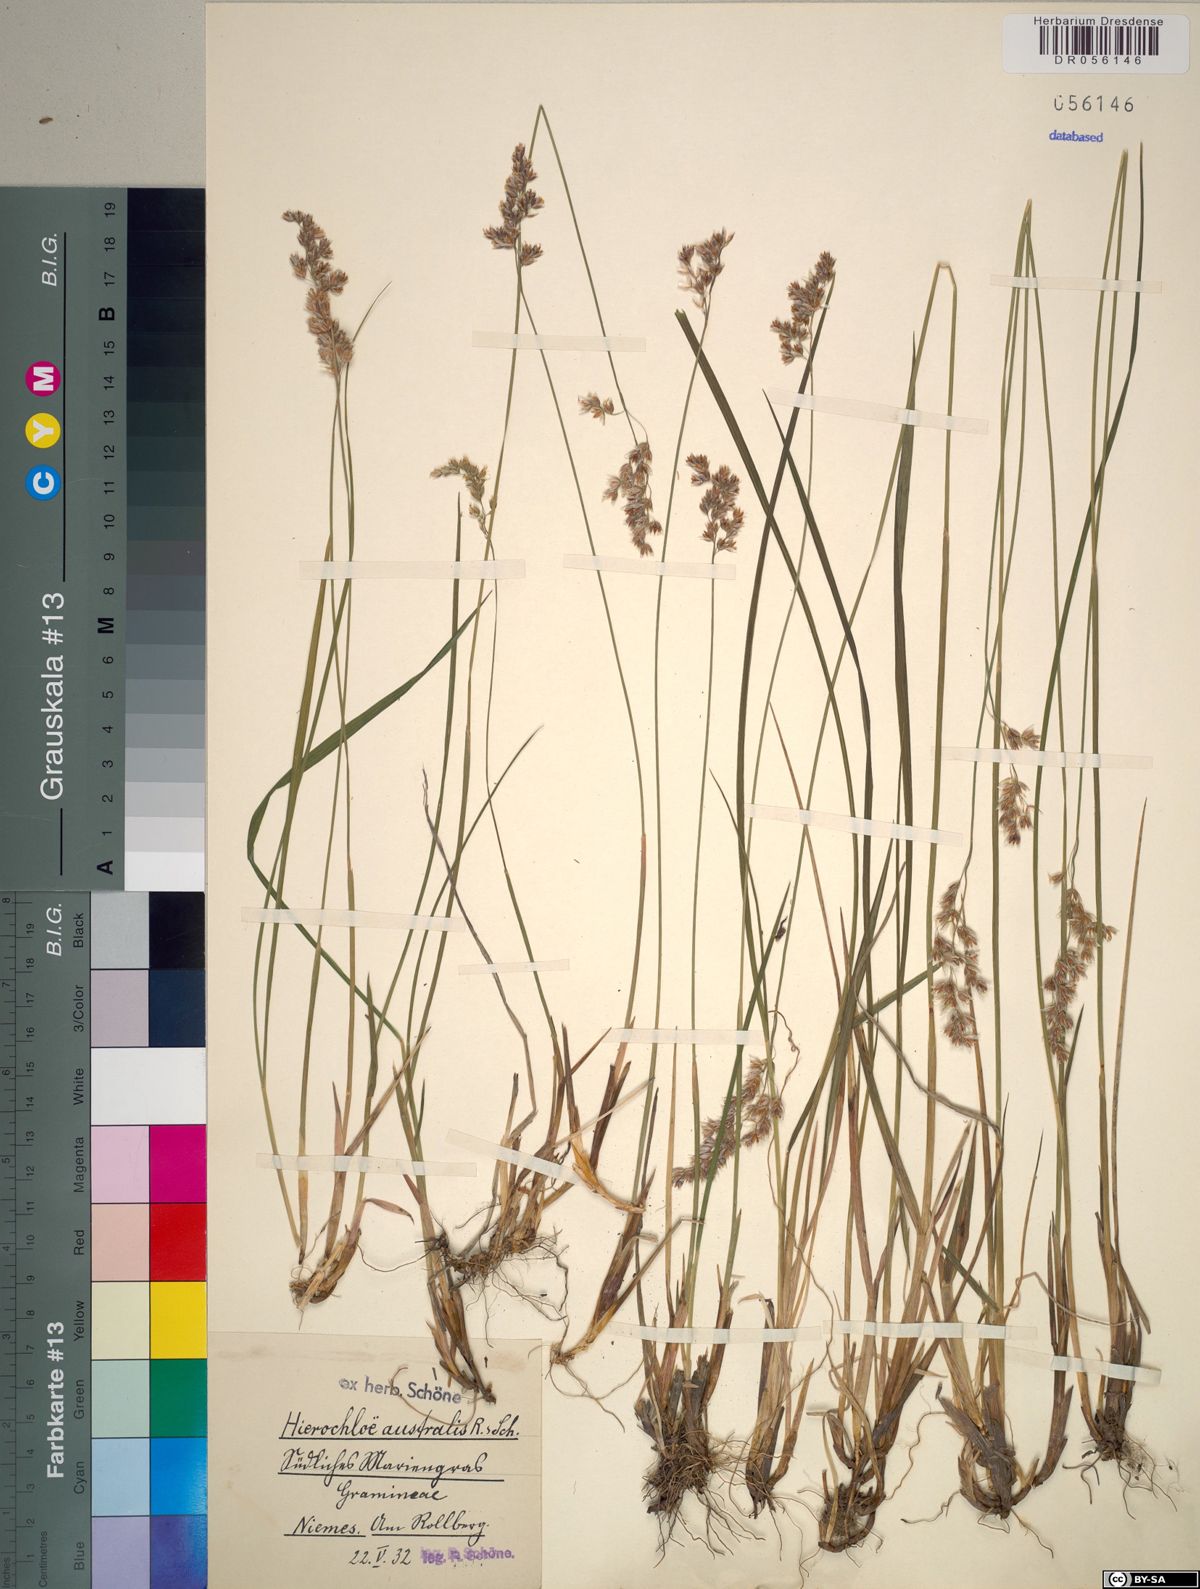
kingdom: Plantae
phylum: Tracheophyta
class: Liliopsida
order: Poales
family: Poaceae
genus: Anthoxanthum
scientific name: Anthoxanthum australe
